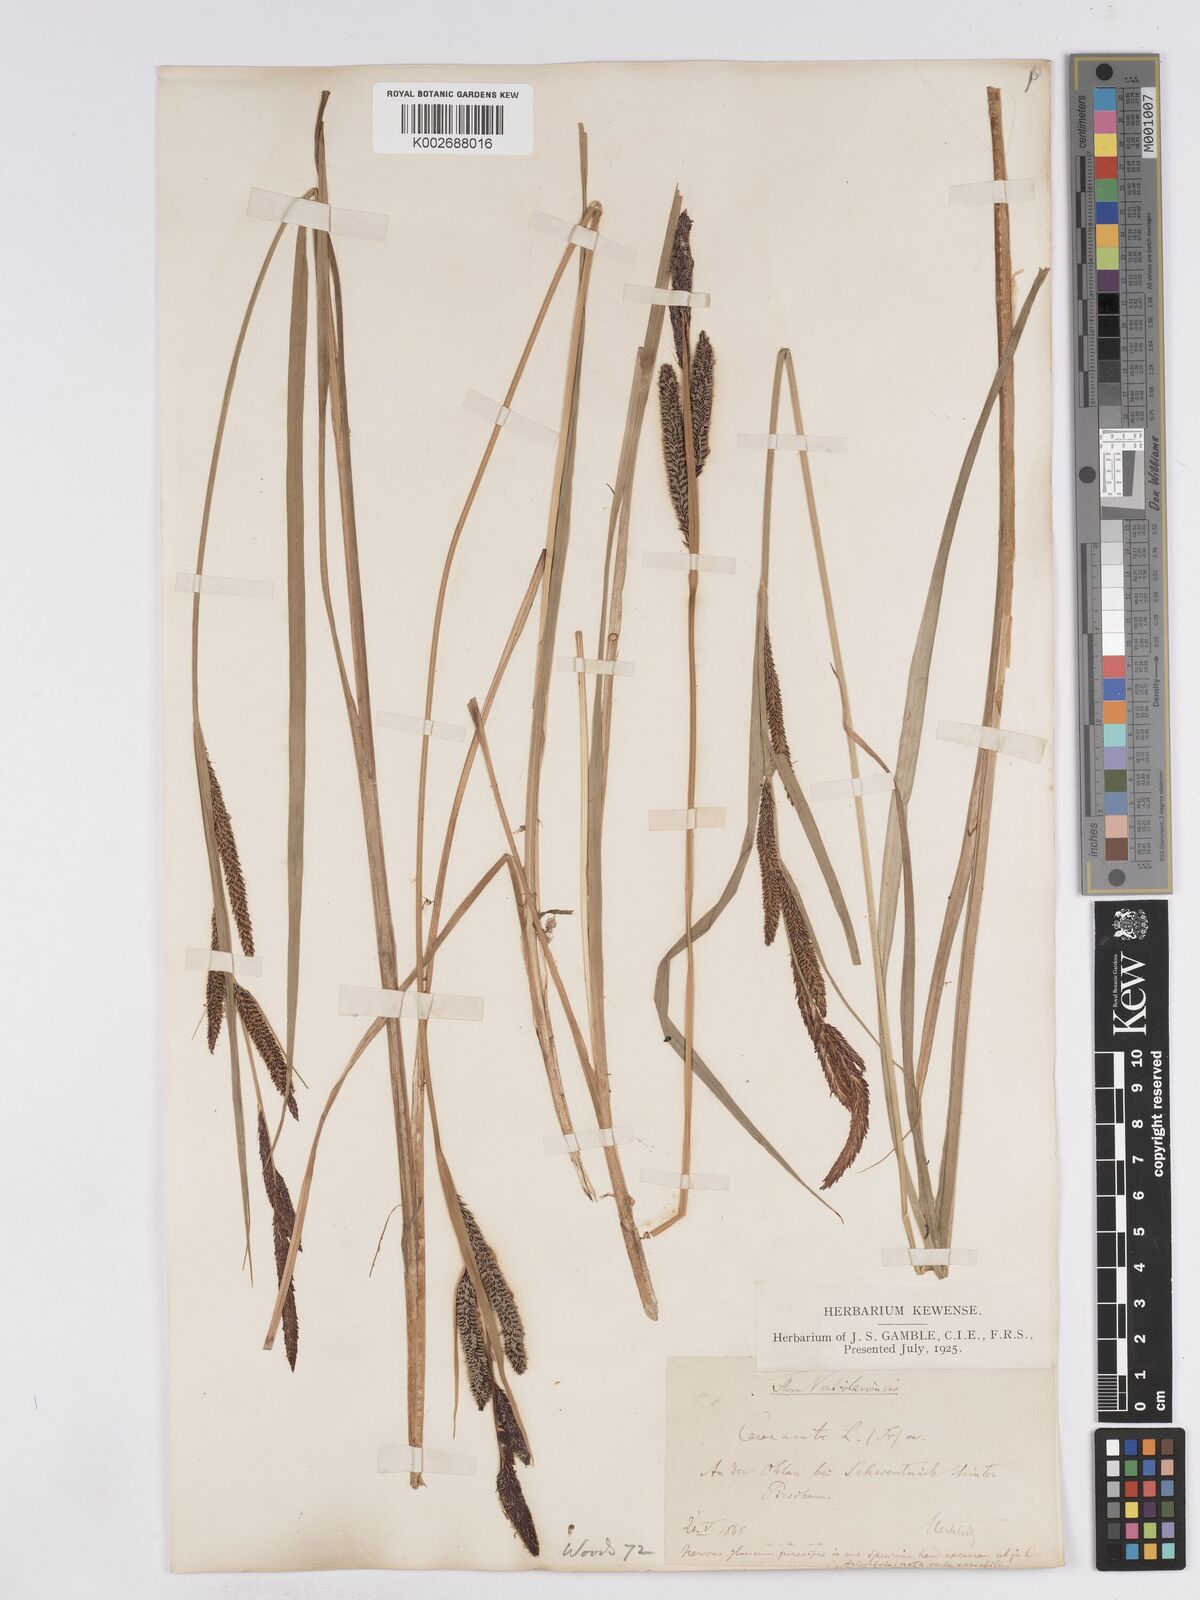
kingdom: Plantae
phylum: Tracheophyta
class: Liliopsida
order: Poales
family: Cyperaceae
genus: Carex
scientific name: Carex acuta
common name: Slender tufted-sedge
